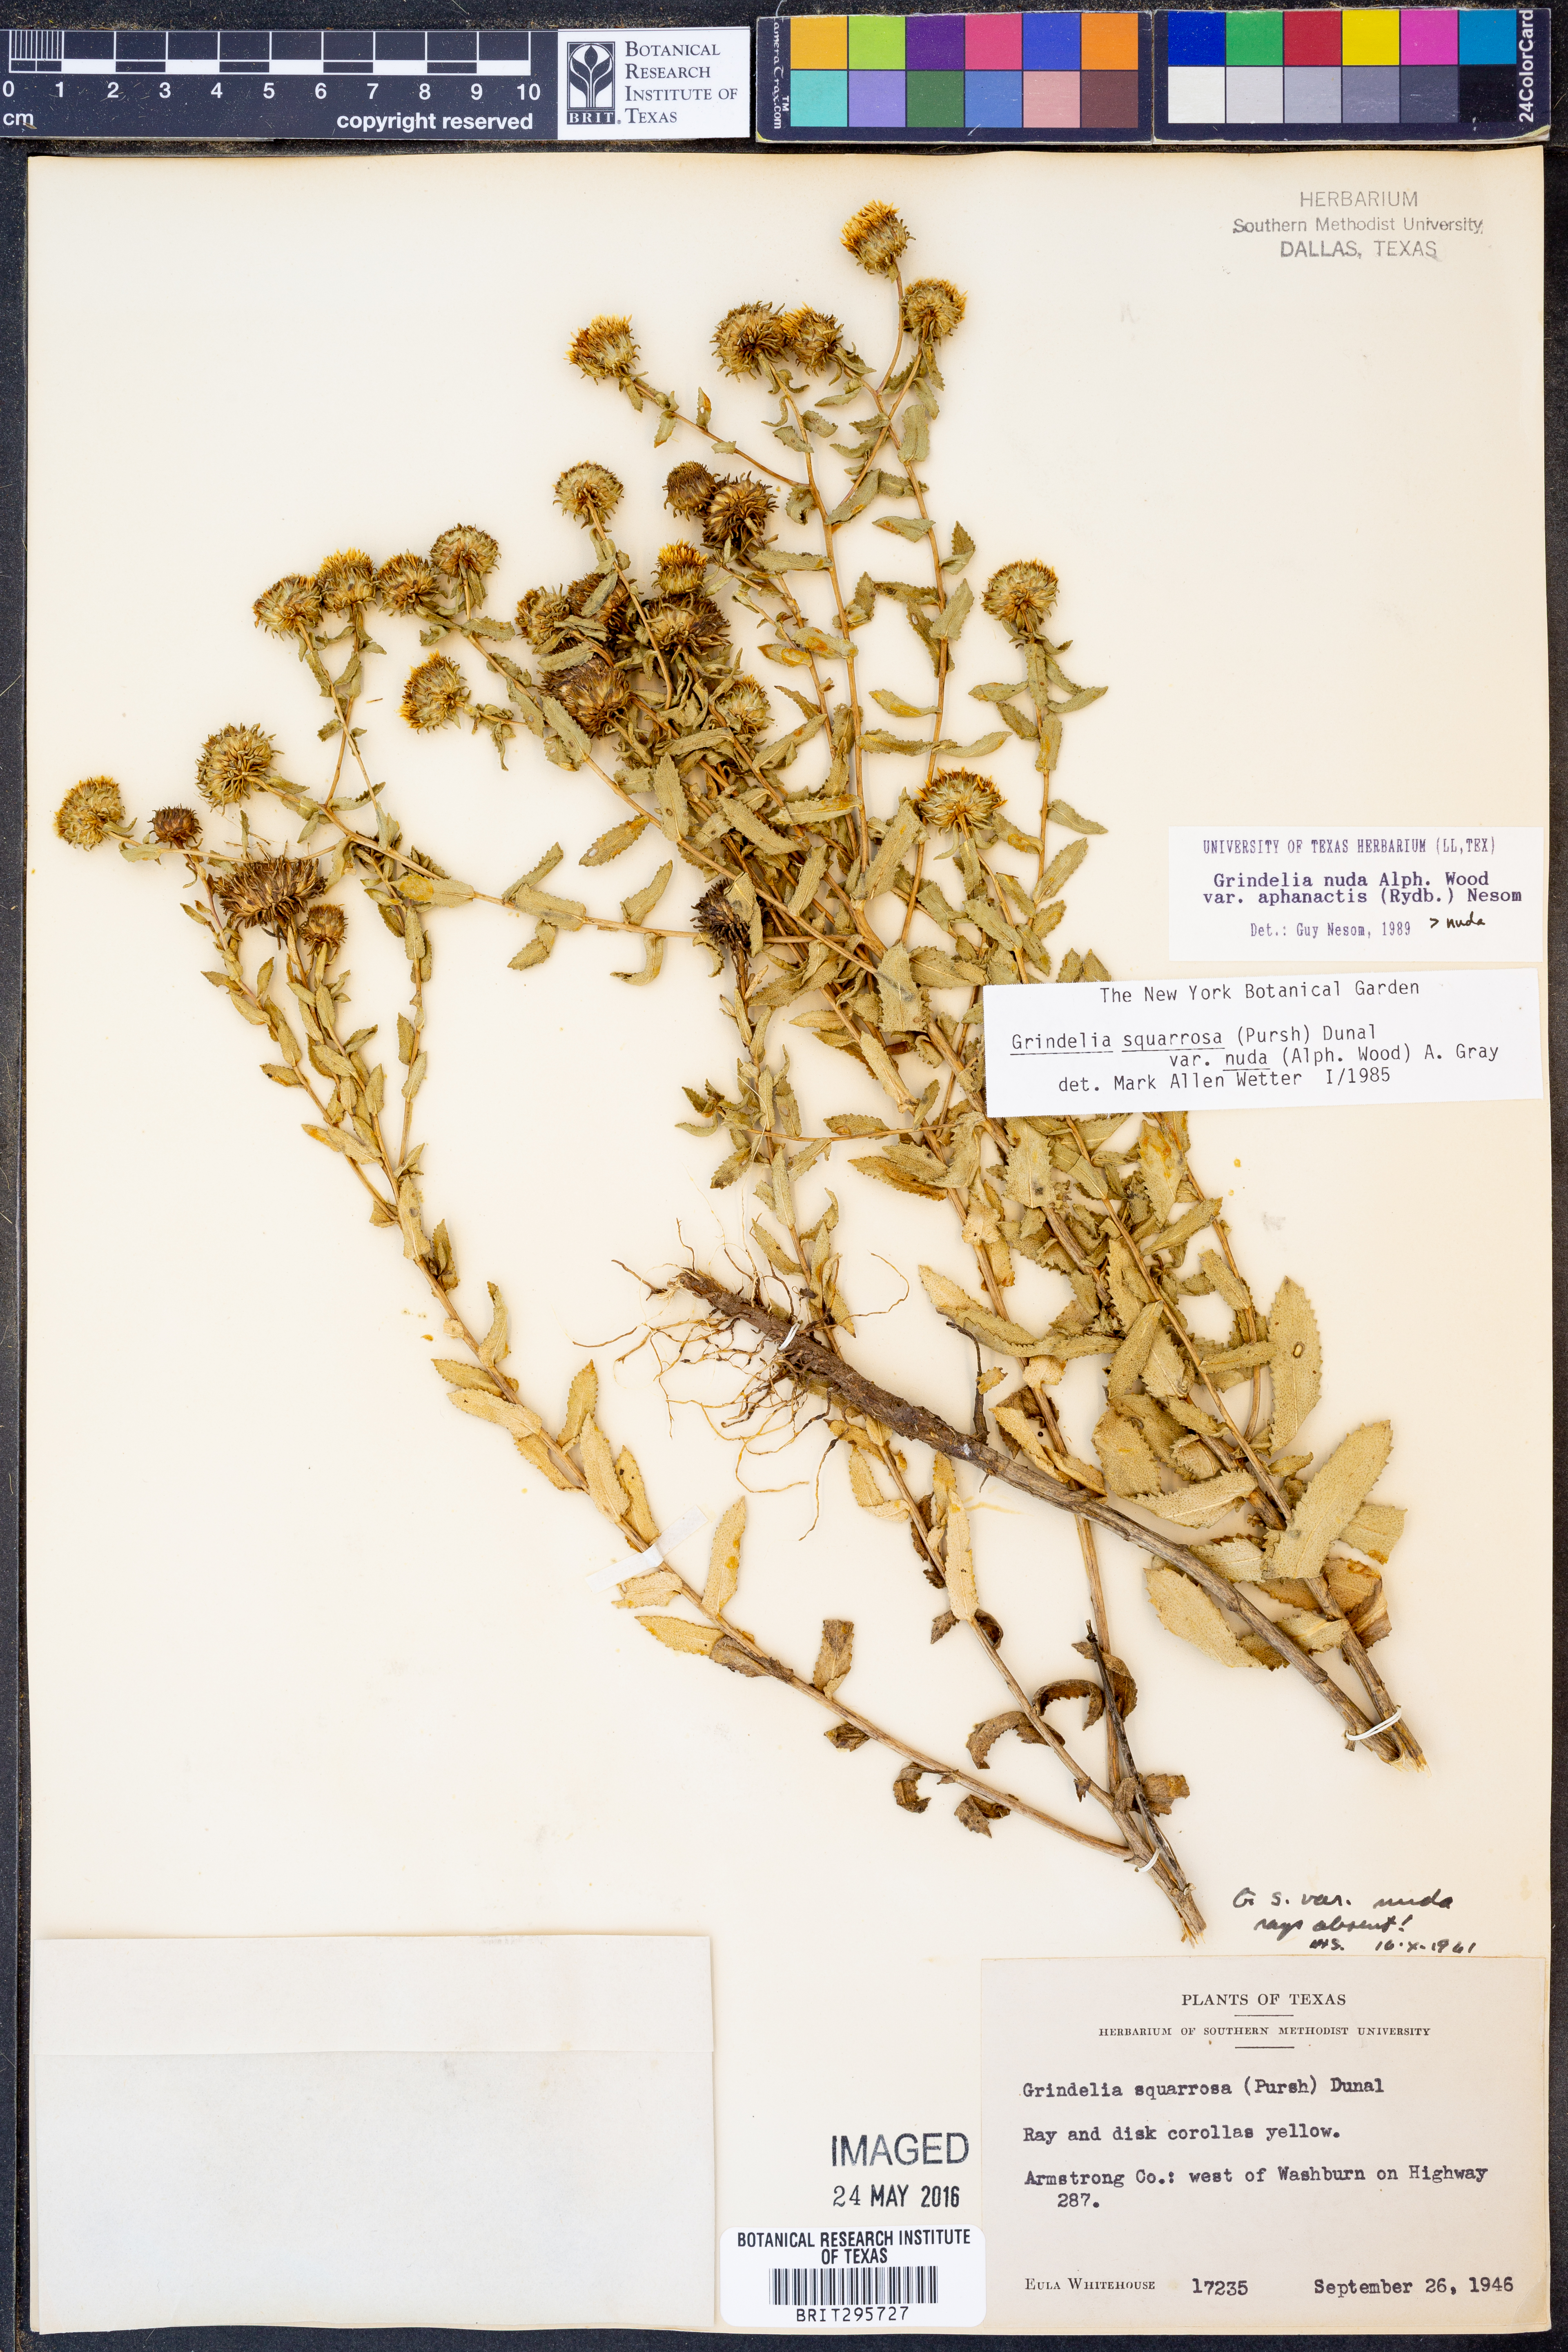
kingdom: Plantae
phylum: Tracheophyta
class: Magnoliopsida
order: Asterales
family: Asteraceae
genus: Grindelia
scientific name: Grindelia nuda
